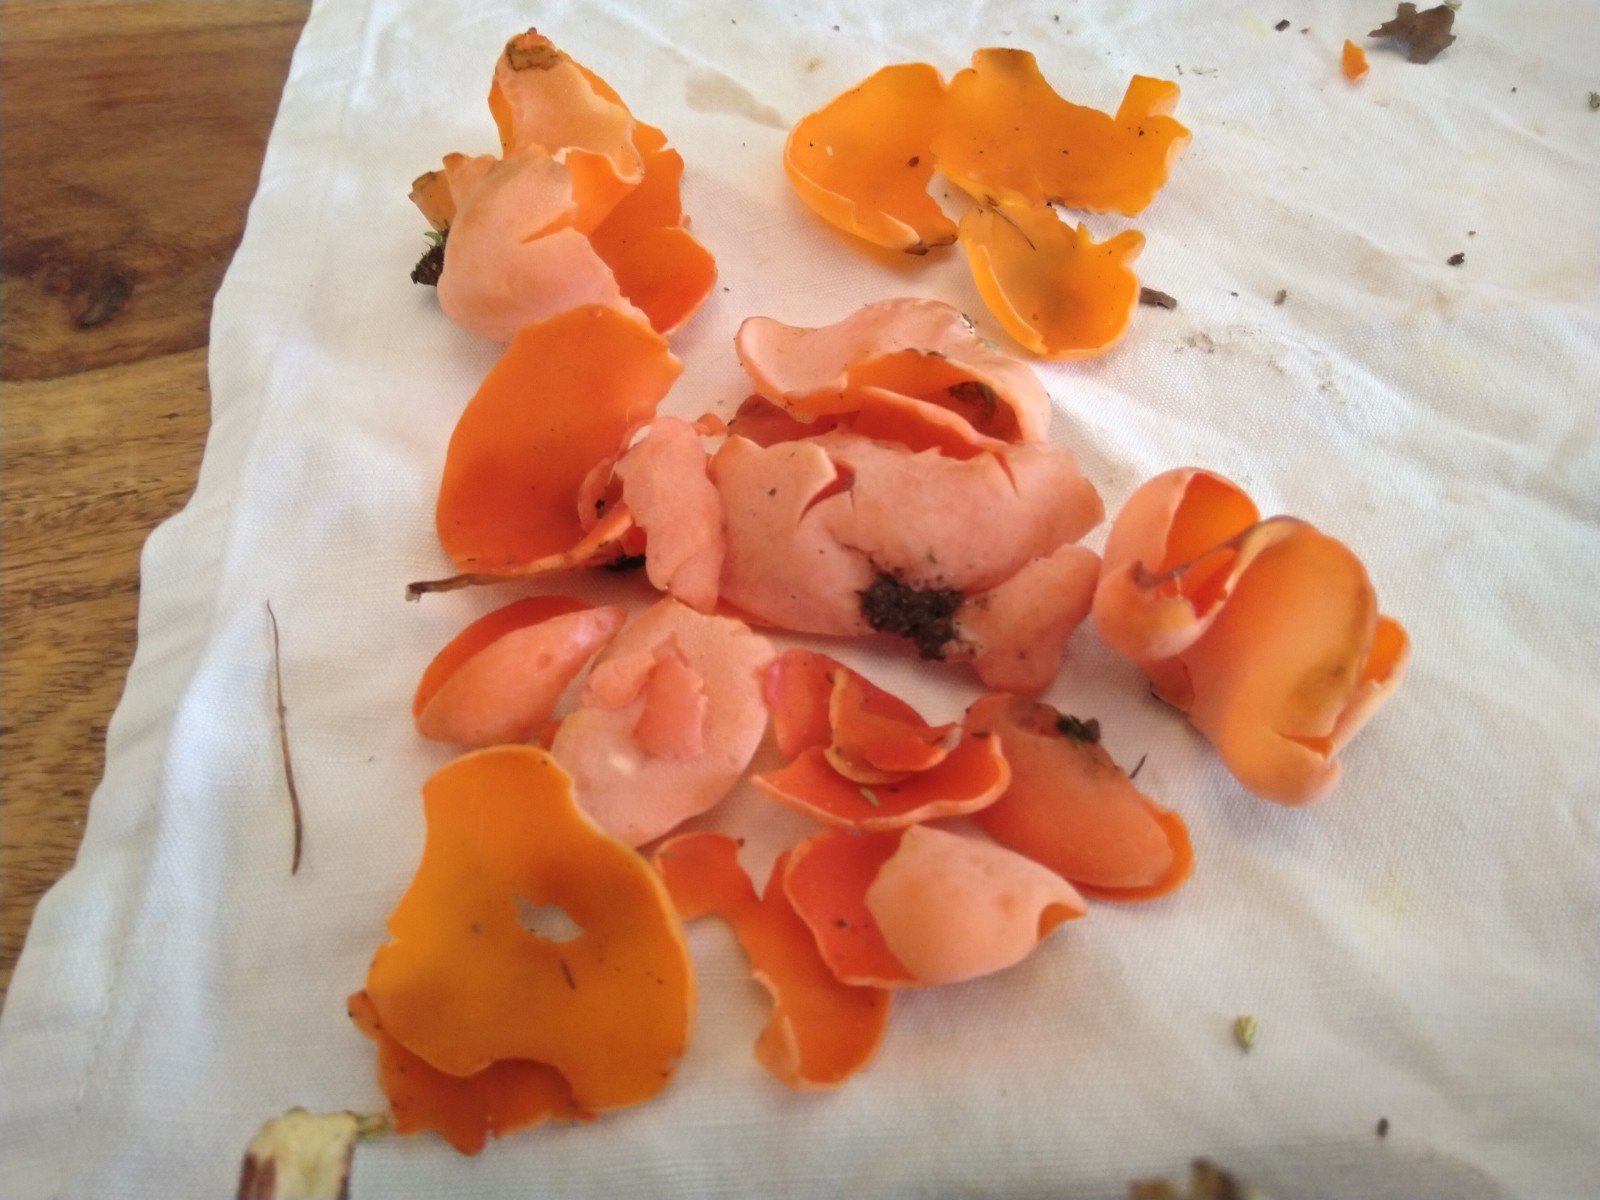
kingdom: Fungi
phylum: Ascomycota
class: Pezizomycetes
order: Pezizales
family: Pyronemataceae
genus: Aleuria
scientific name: Aleuria aurantia
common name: almindelig orangebæger
